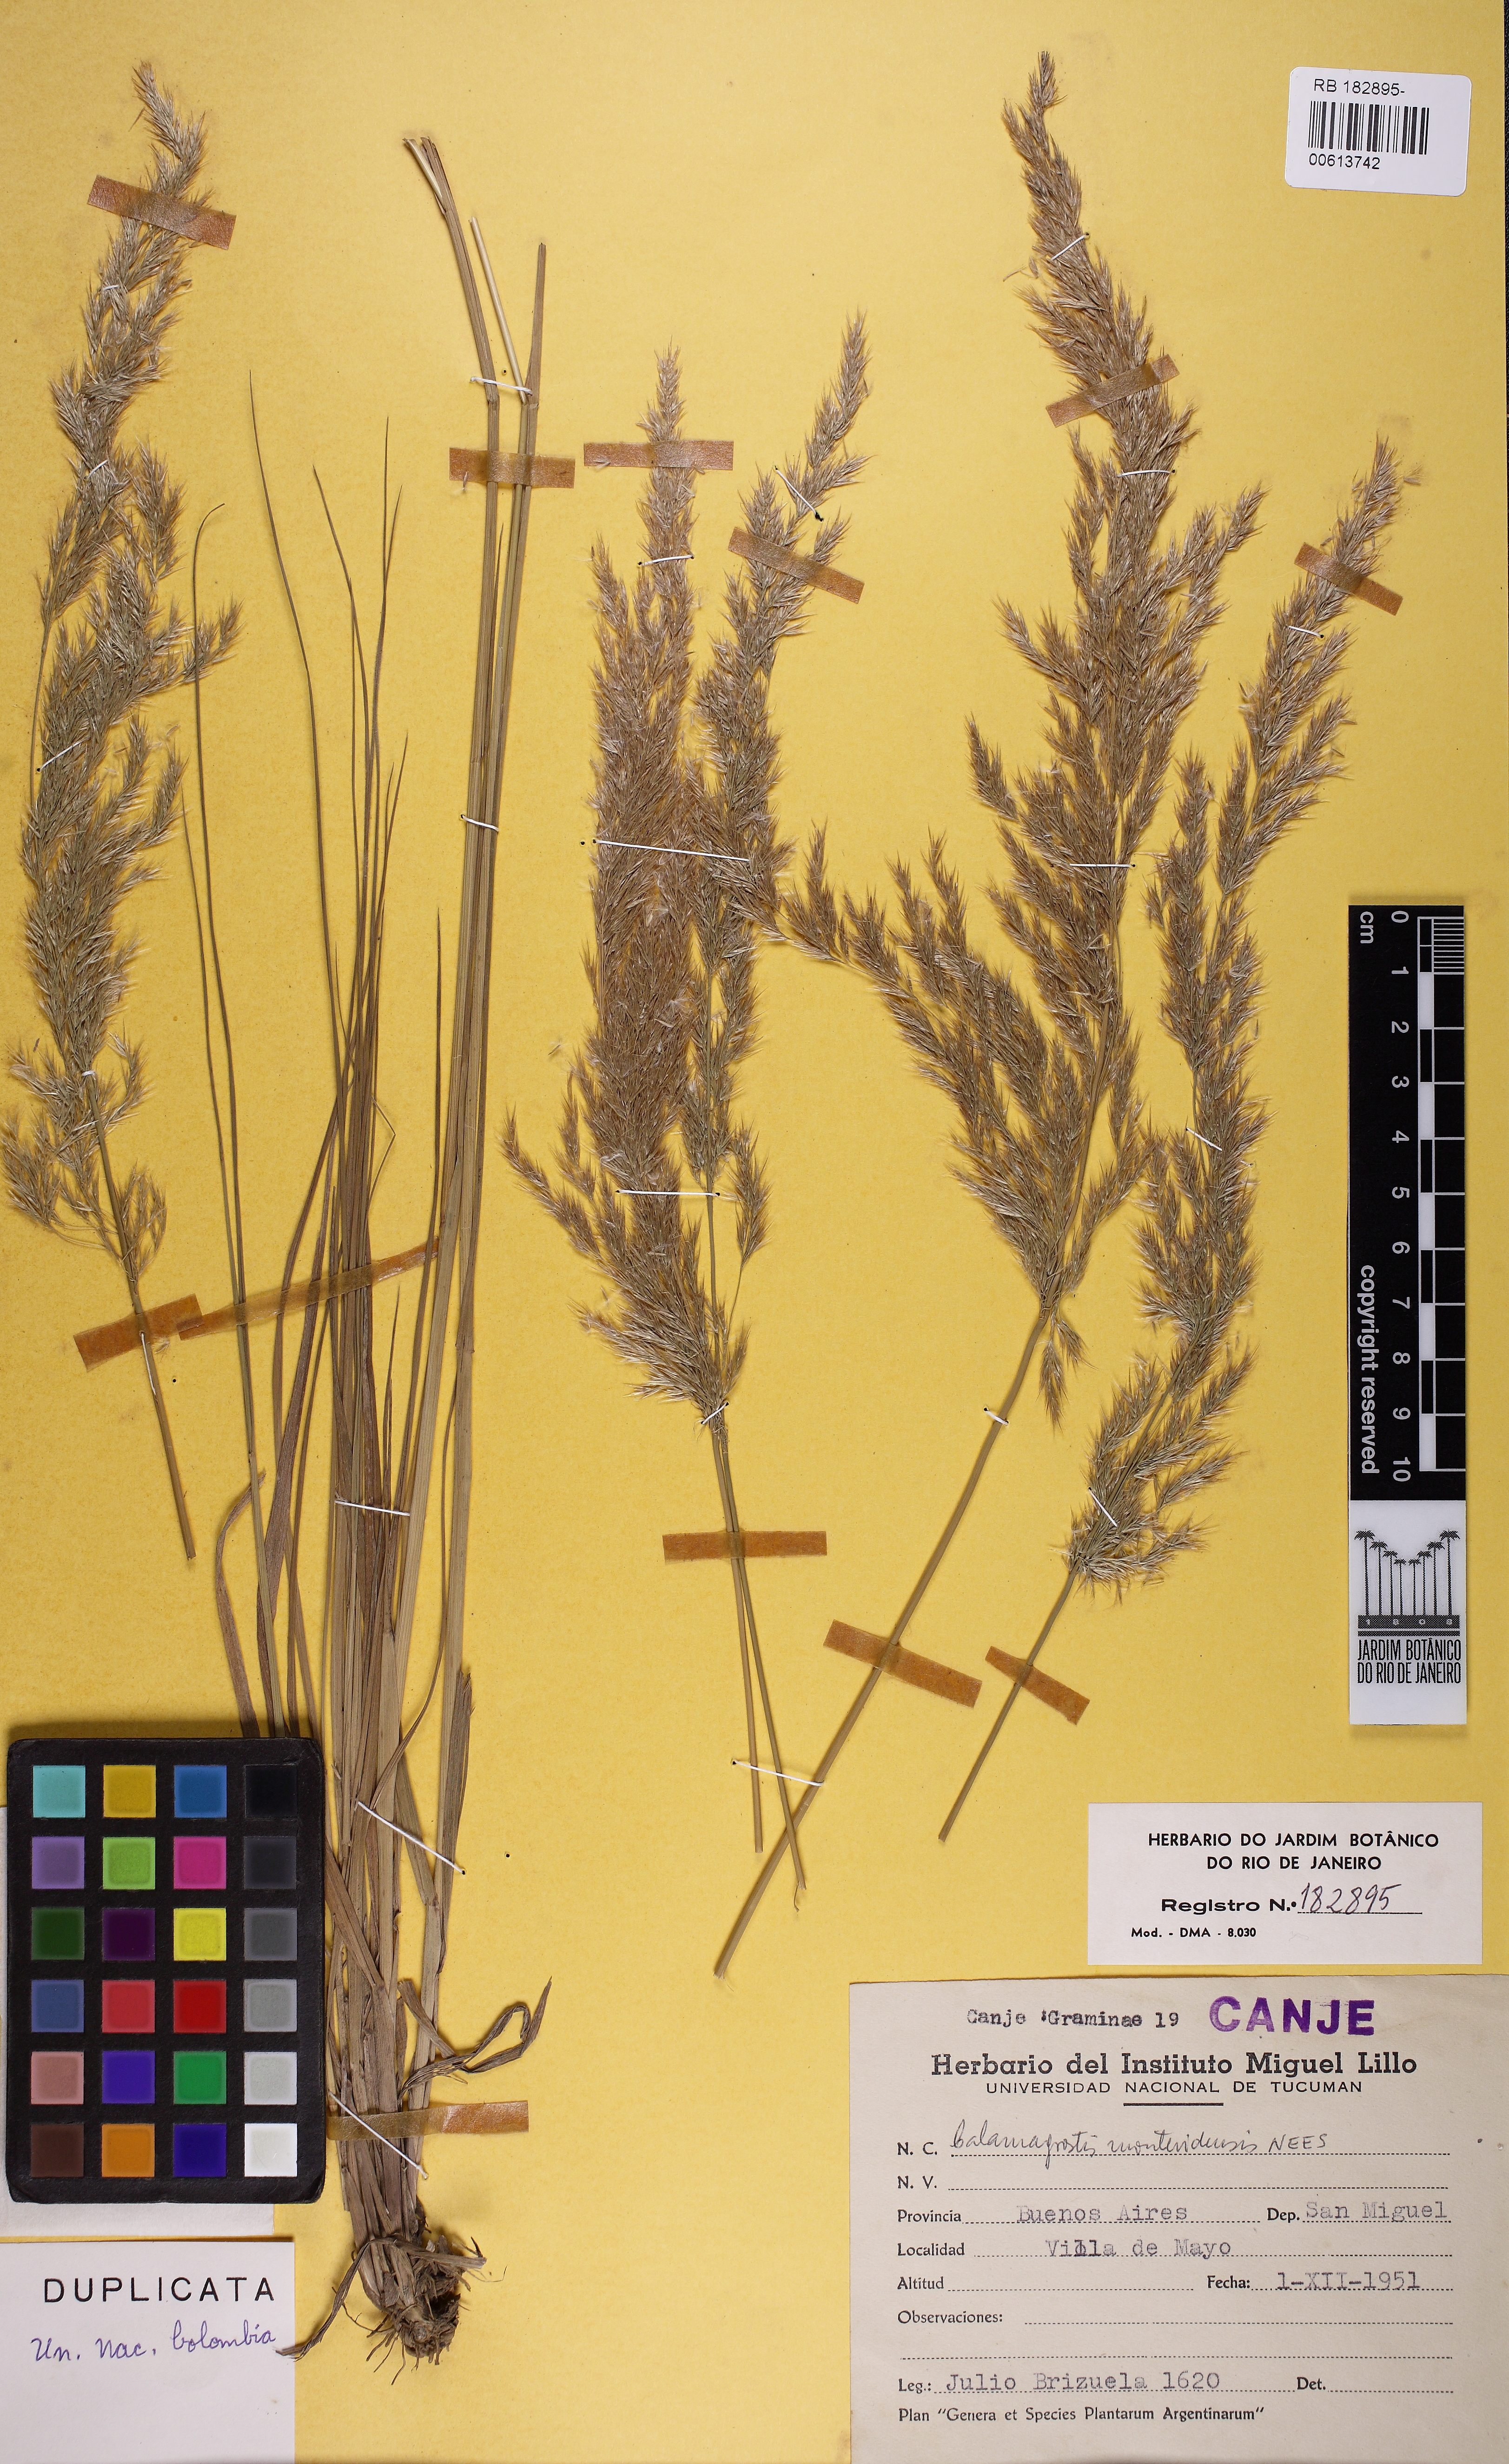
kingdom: Plantae
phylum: Tracheophyta
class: Liliopsida
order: Poales
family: Poaceae
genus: Cinnagrostis
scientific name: Cinnagrostis viridiflavescens
